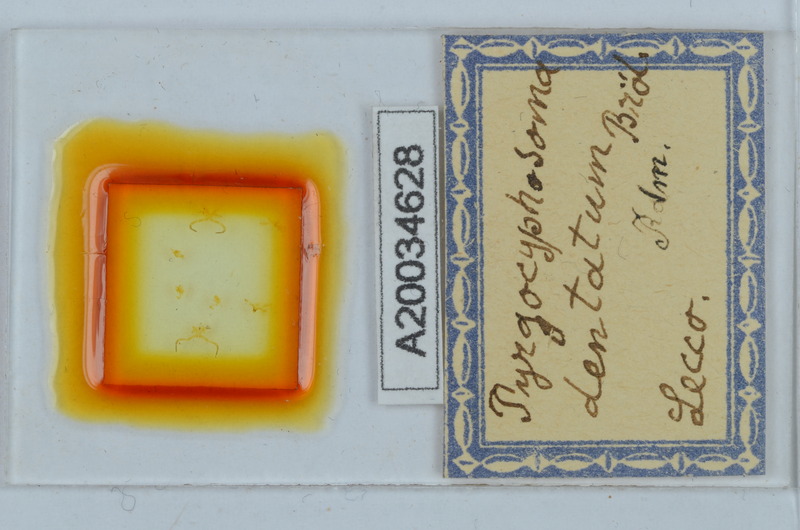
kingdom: Animalia
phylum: Arthropoda
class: Diplopoda
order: Chordeumatida
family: Craspedosomatidae
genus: Pyrgocyphosoma
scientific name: Pyrgocyphosoma dentatum
